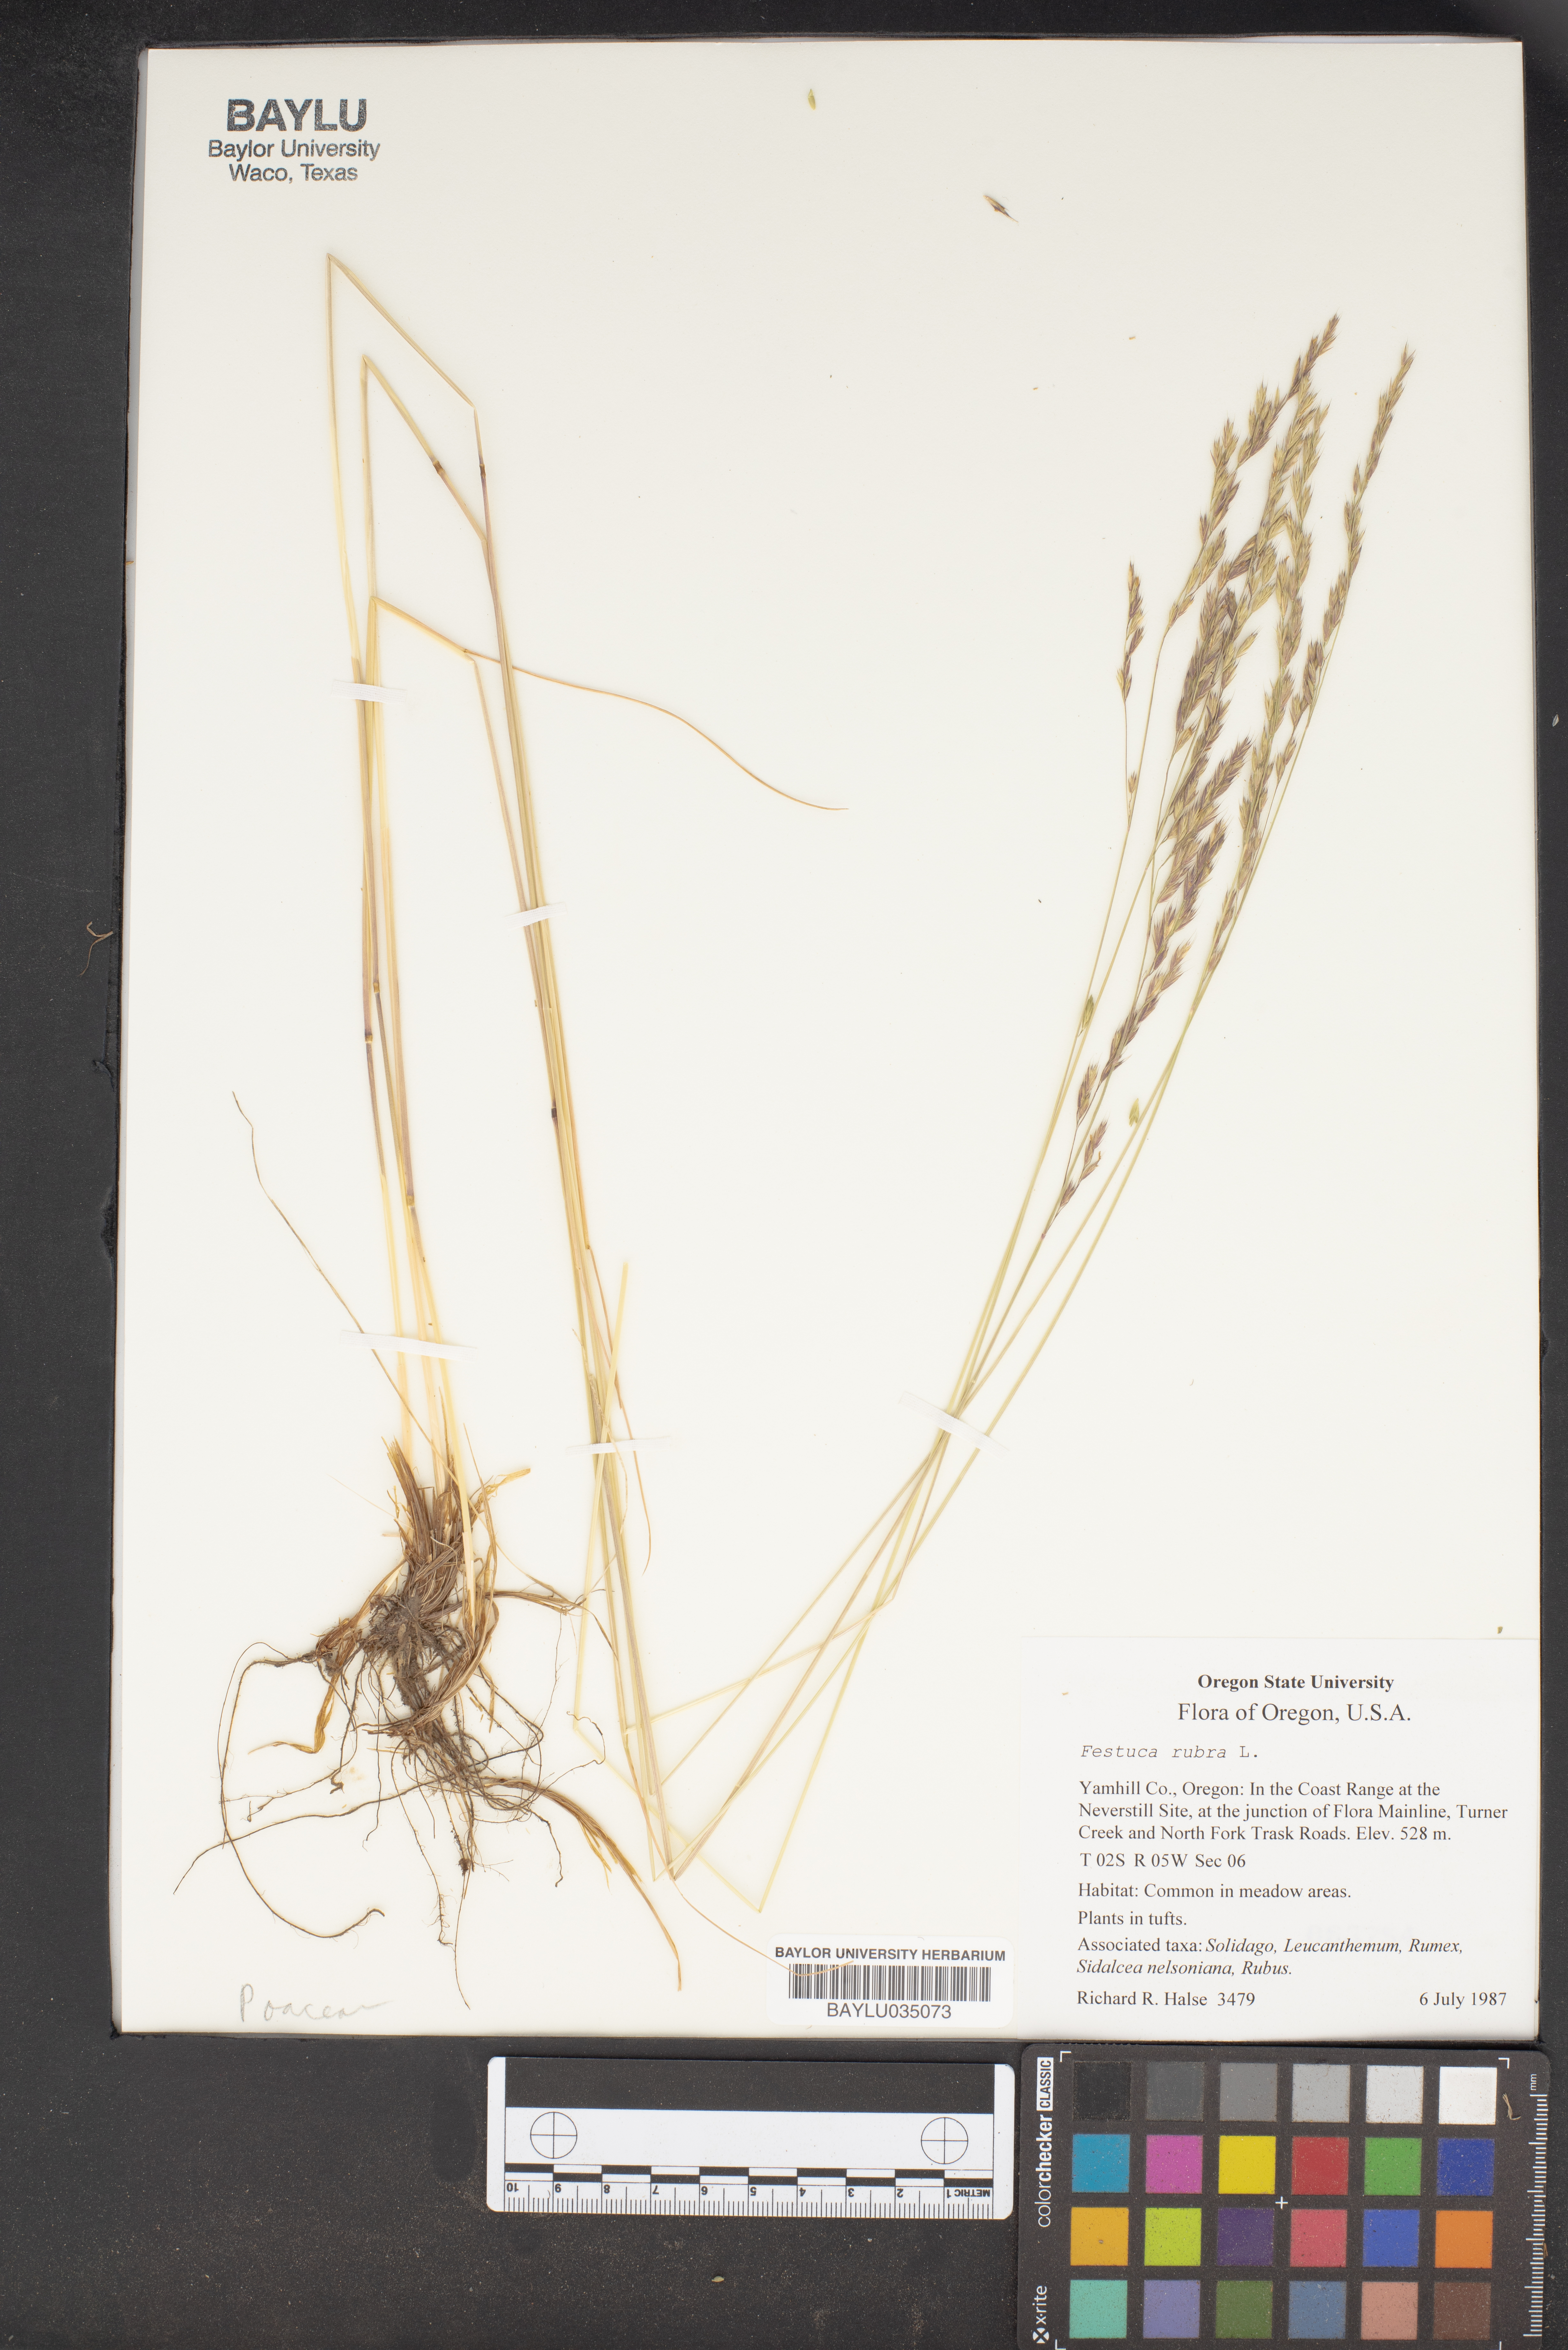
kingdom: Plantae
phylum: Tracheophyta
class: Liliopsida
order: Poales
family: Poaceae
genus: Festuca
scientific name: Festuca rubra
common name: Red fescue
